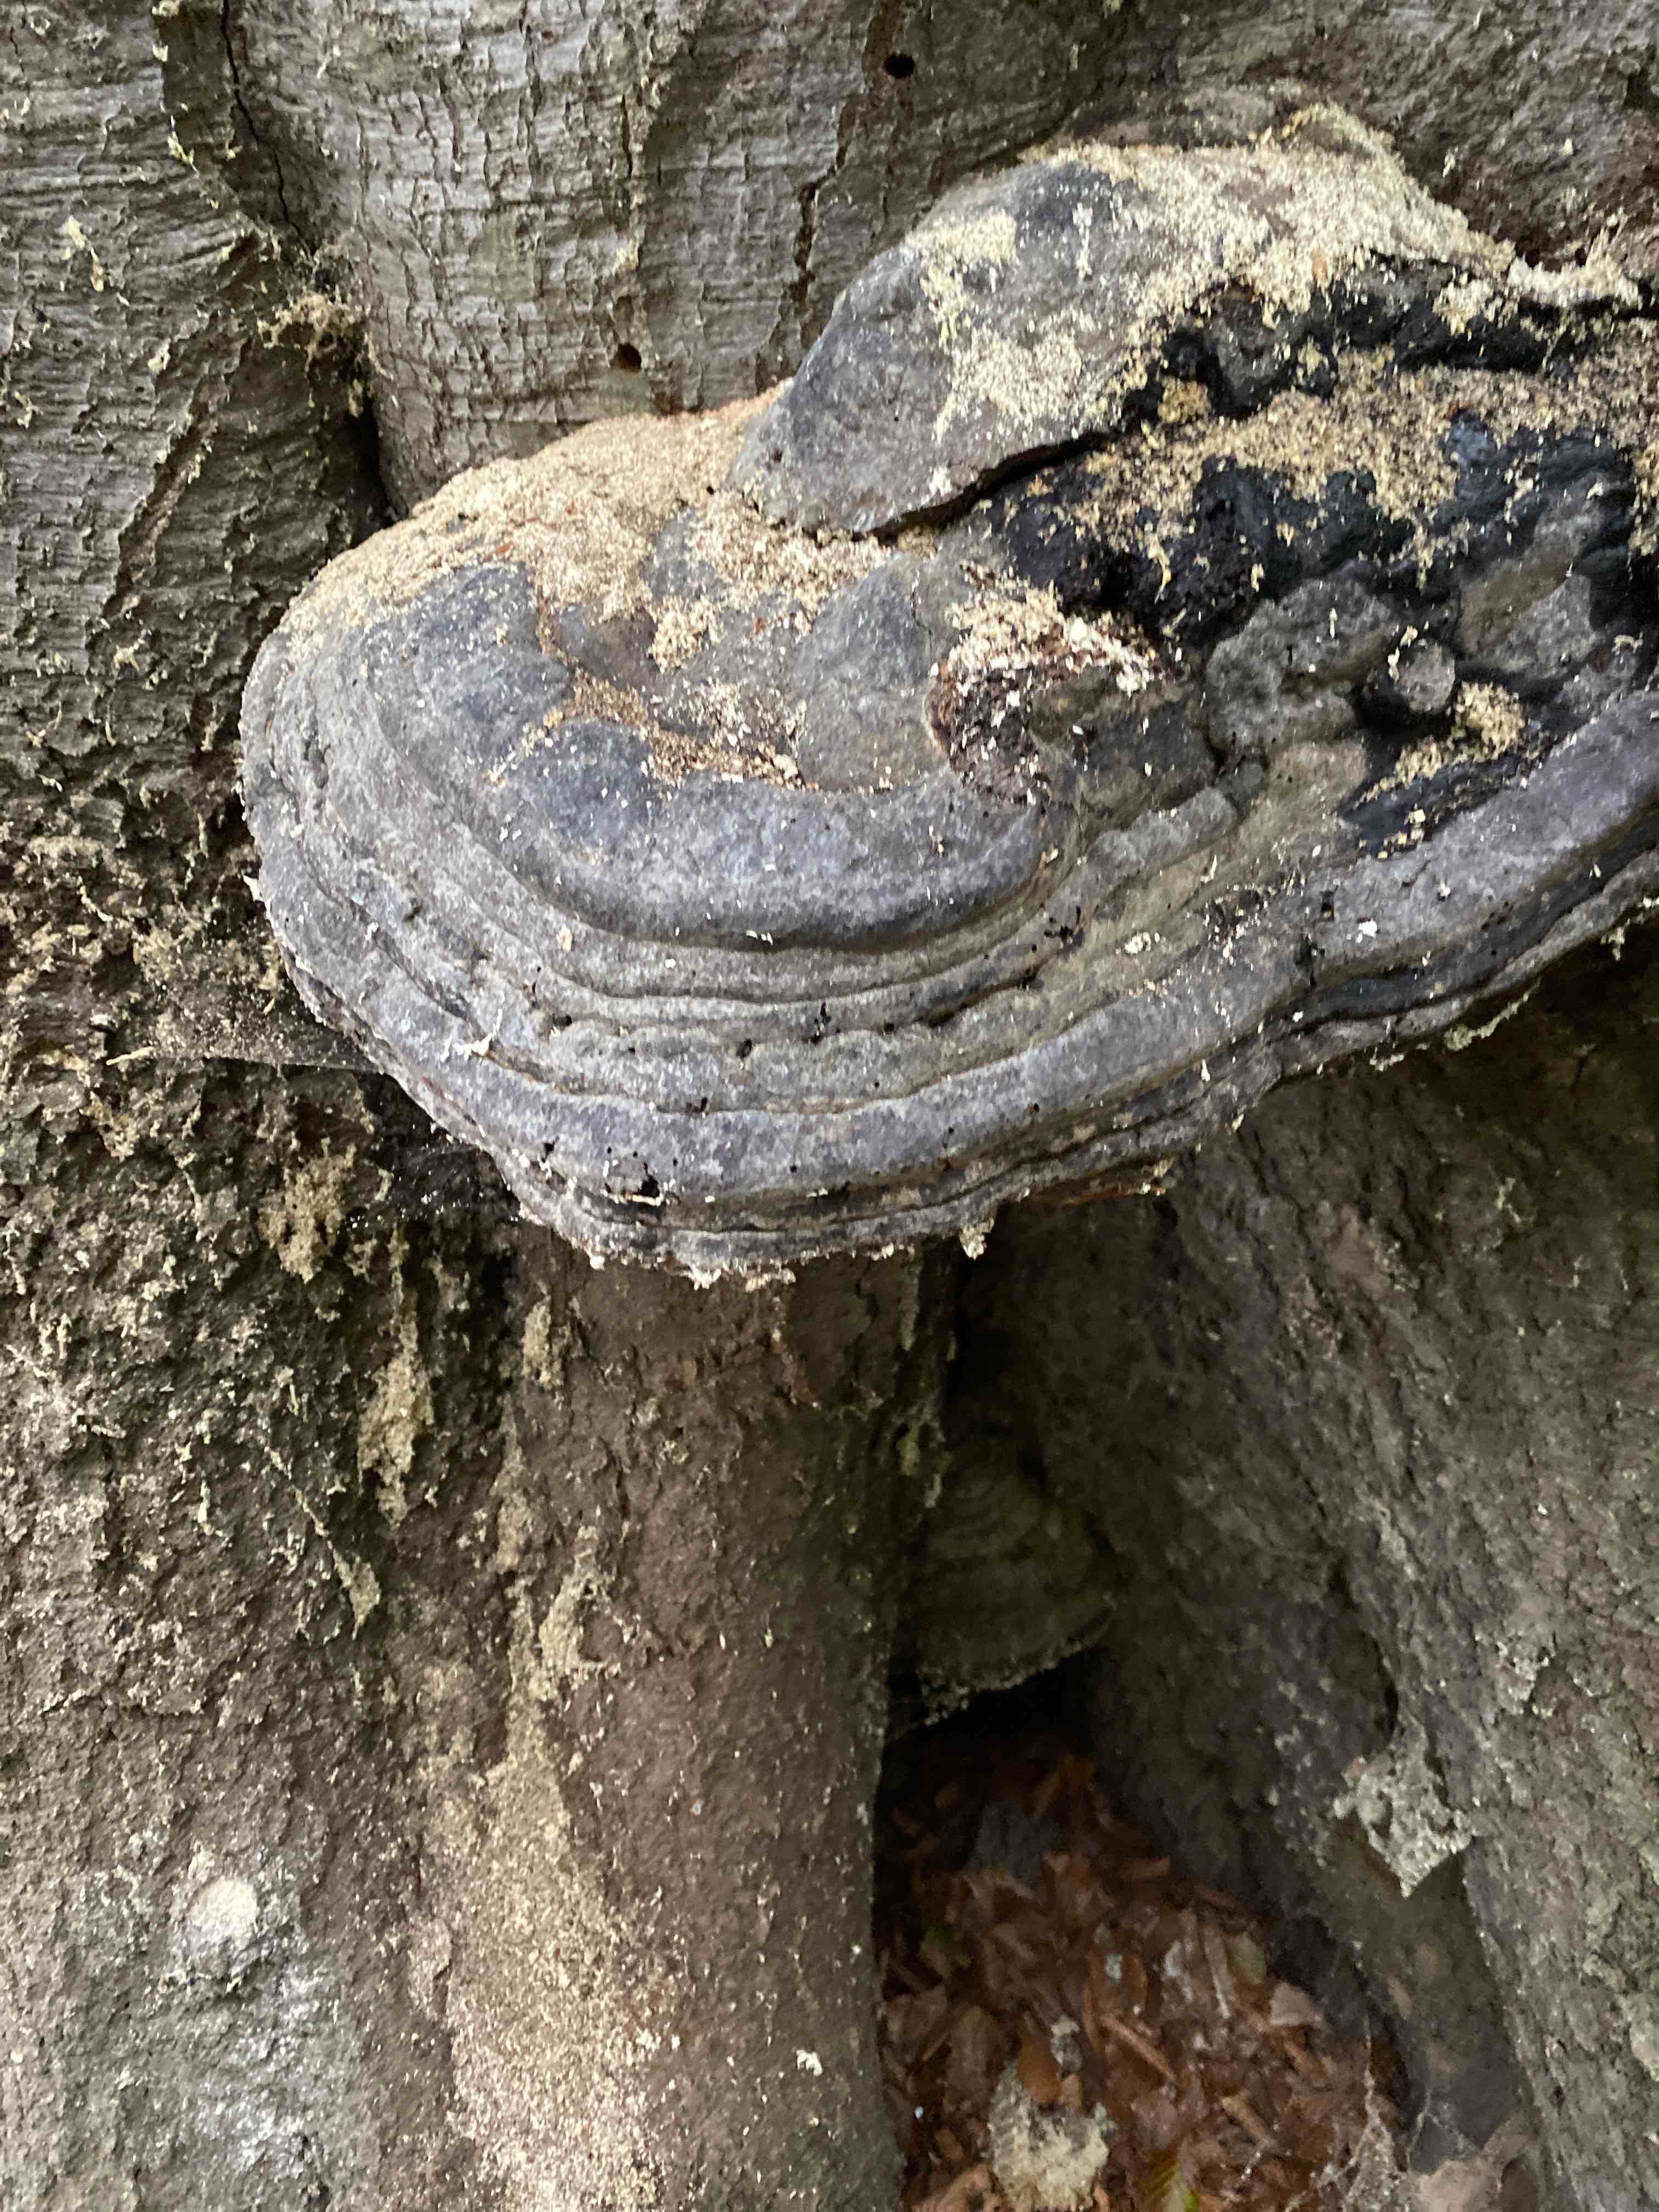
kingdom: Fungi
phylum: Basidiomycota
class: Agaricomycetes
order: Polyporales
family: Polyporaceae
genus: Fomes
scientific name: Fomes fomentarius
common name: tøndersvamp
